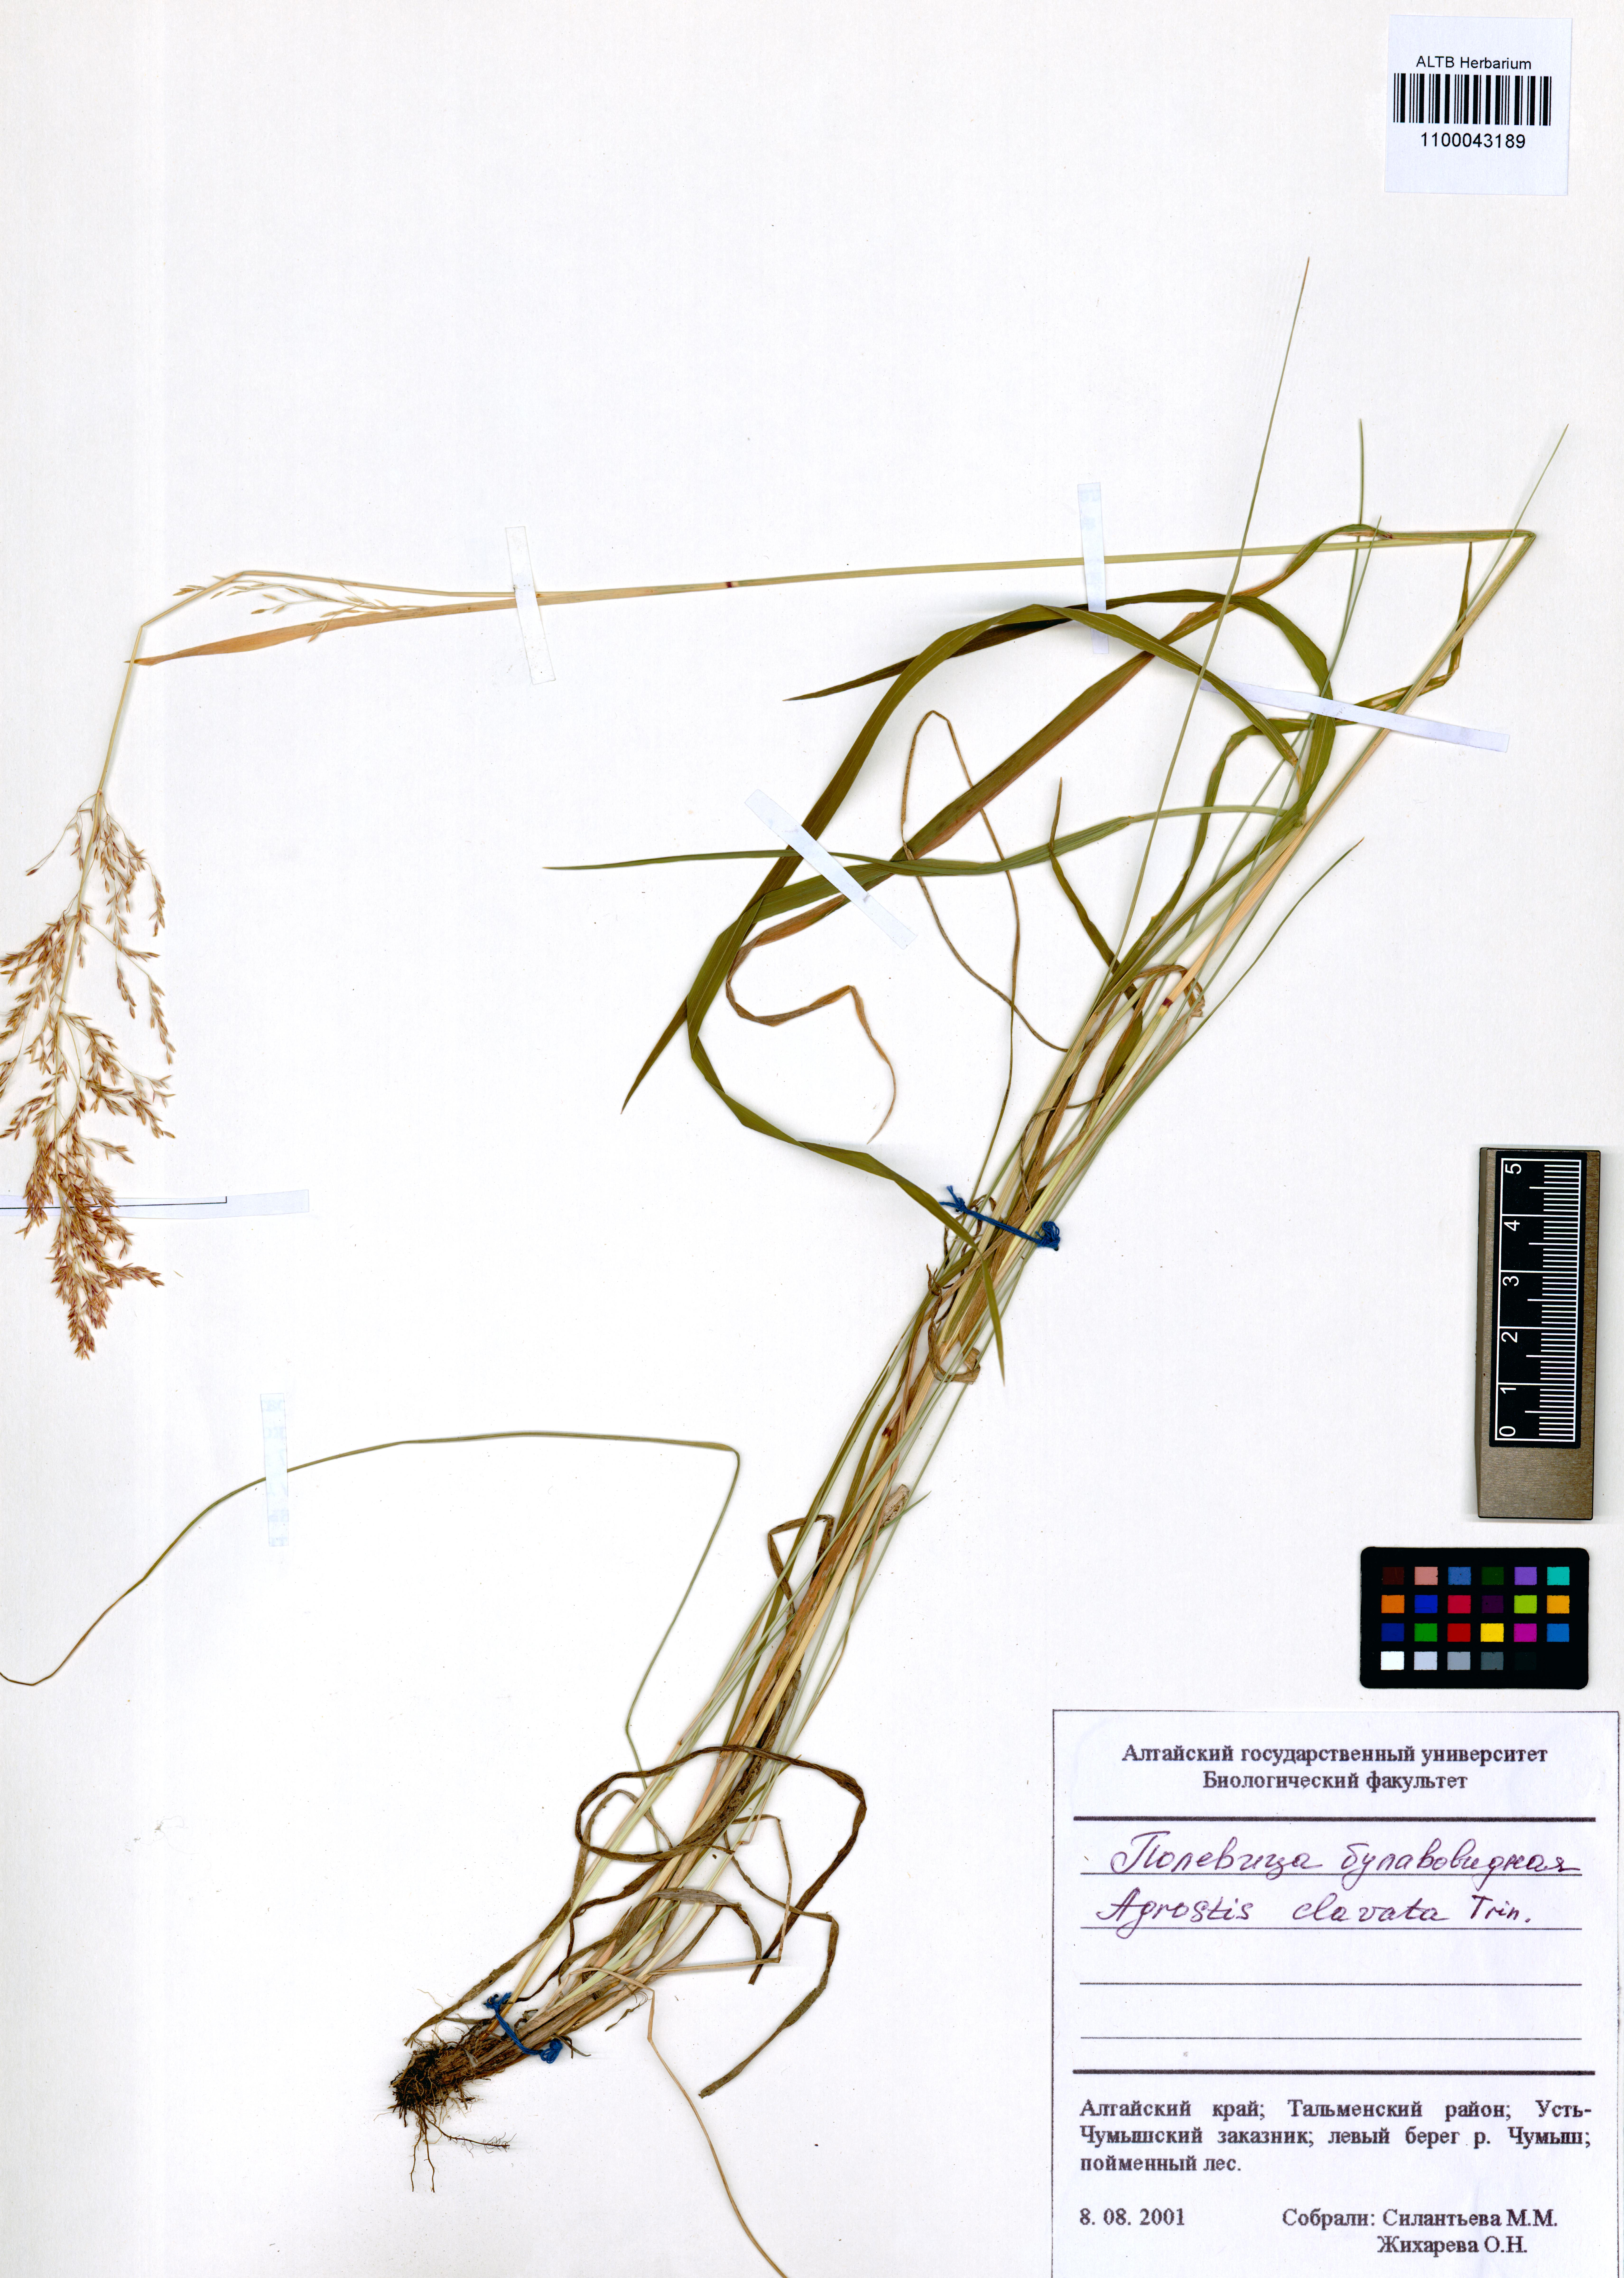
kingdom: Plantae
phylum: Tracheophyta
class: Liliopsida
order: Poales
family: Poaceae
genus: Agrostis
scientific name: Agrostis clavata
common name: Clavate bent
